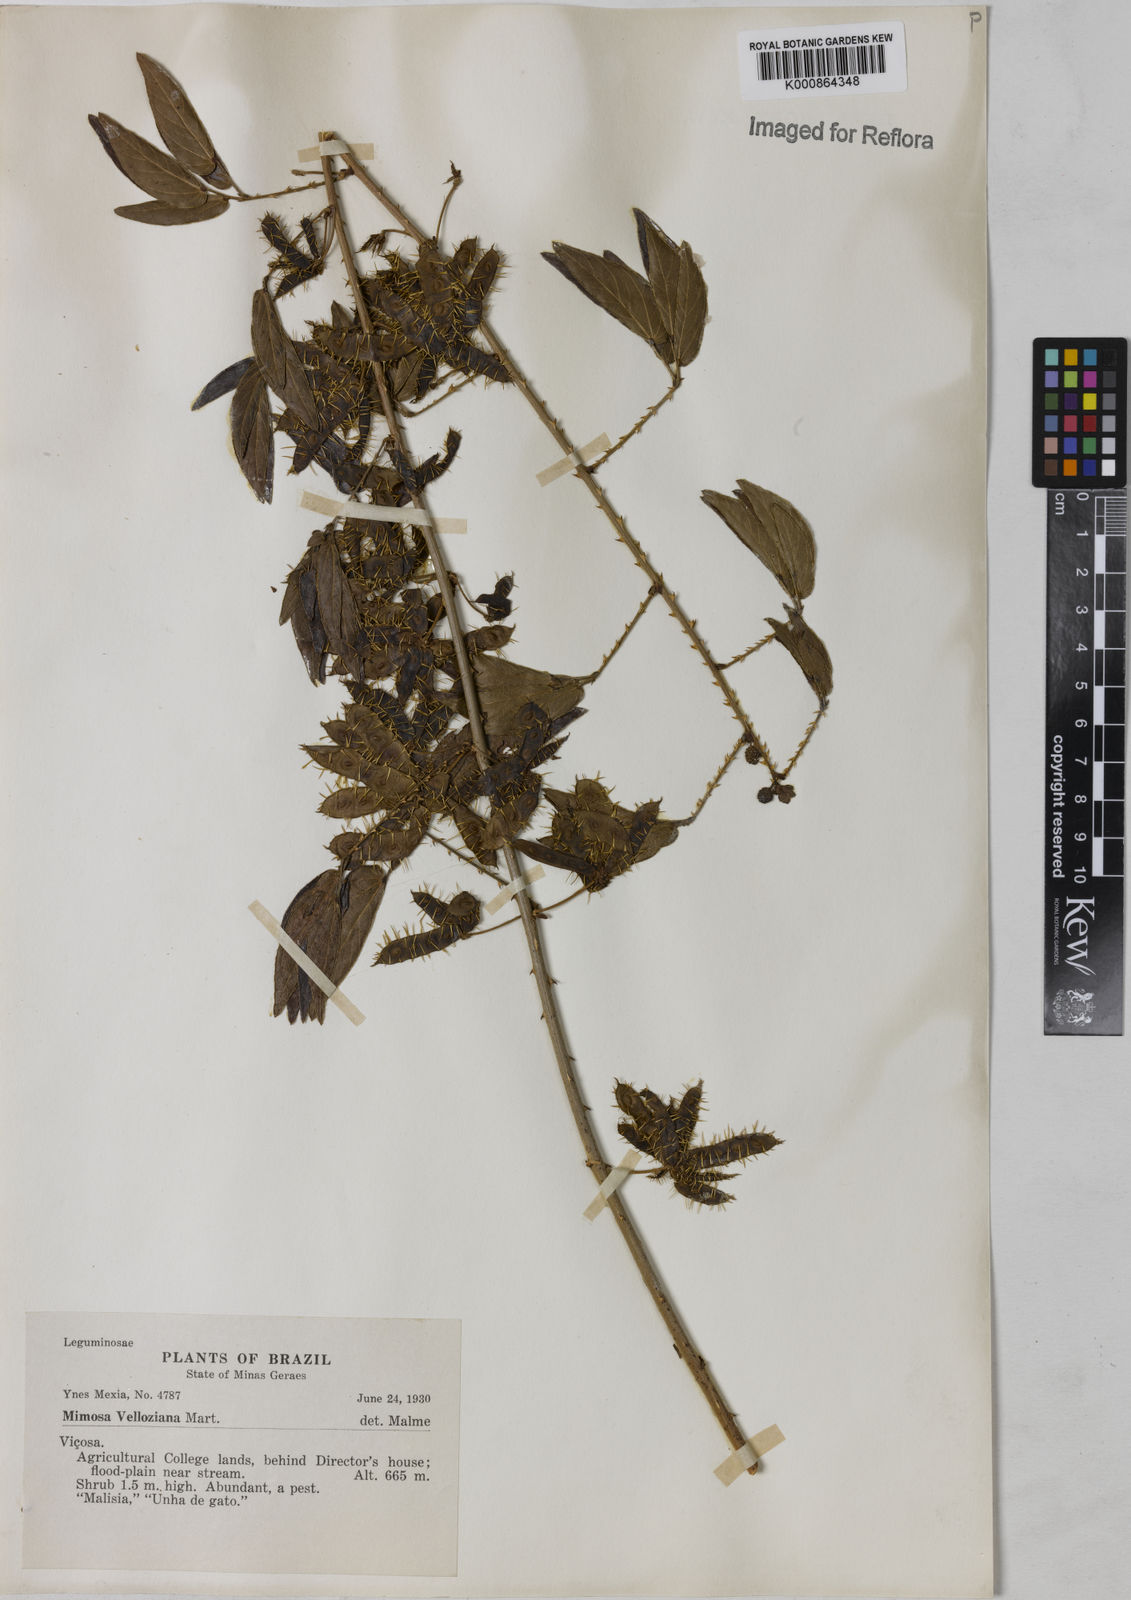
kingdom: Plantae
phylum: Tracheophyta
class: Magnoliopsida
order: Fabales
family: Fabaceae
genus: Mimosa
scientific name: Mimosa velloziana
